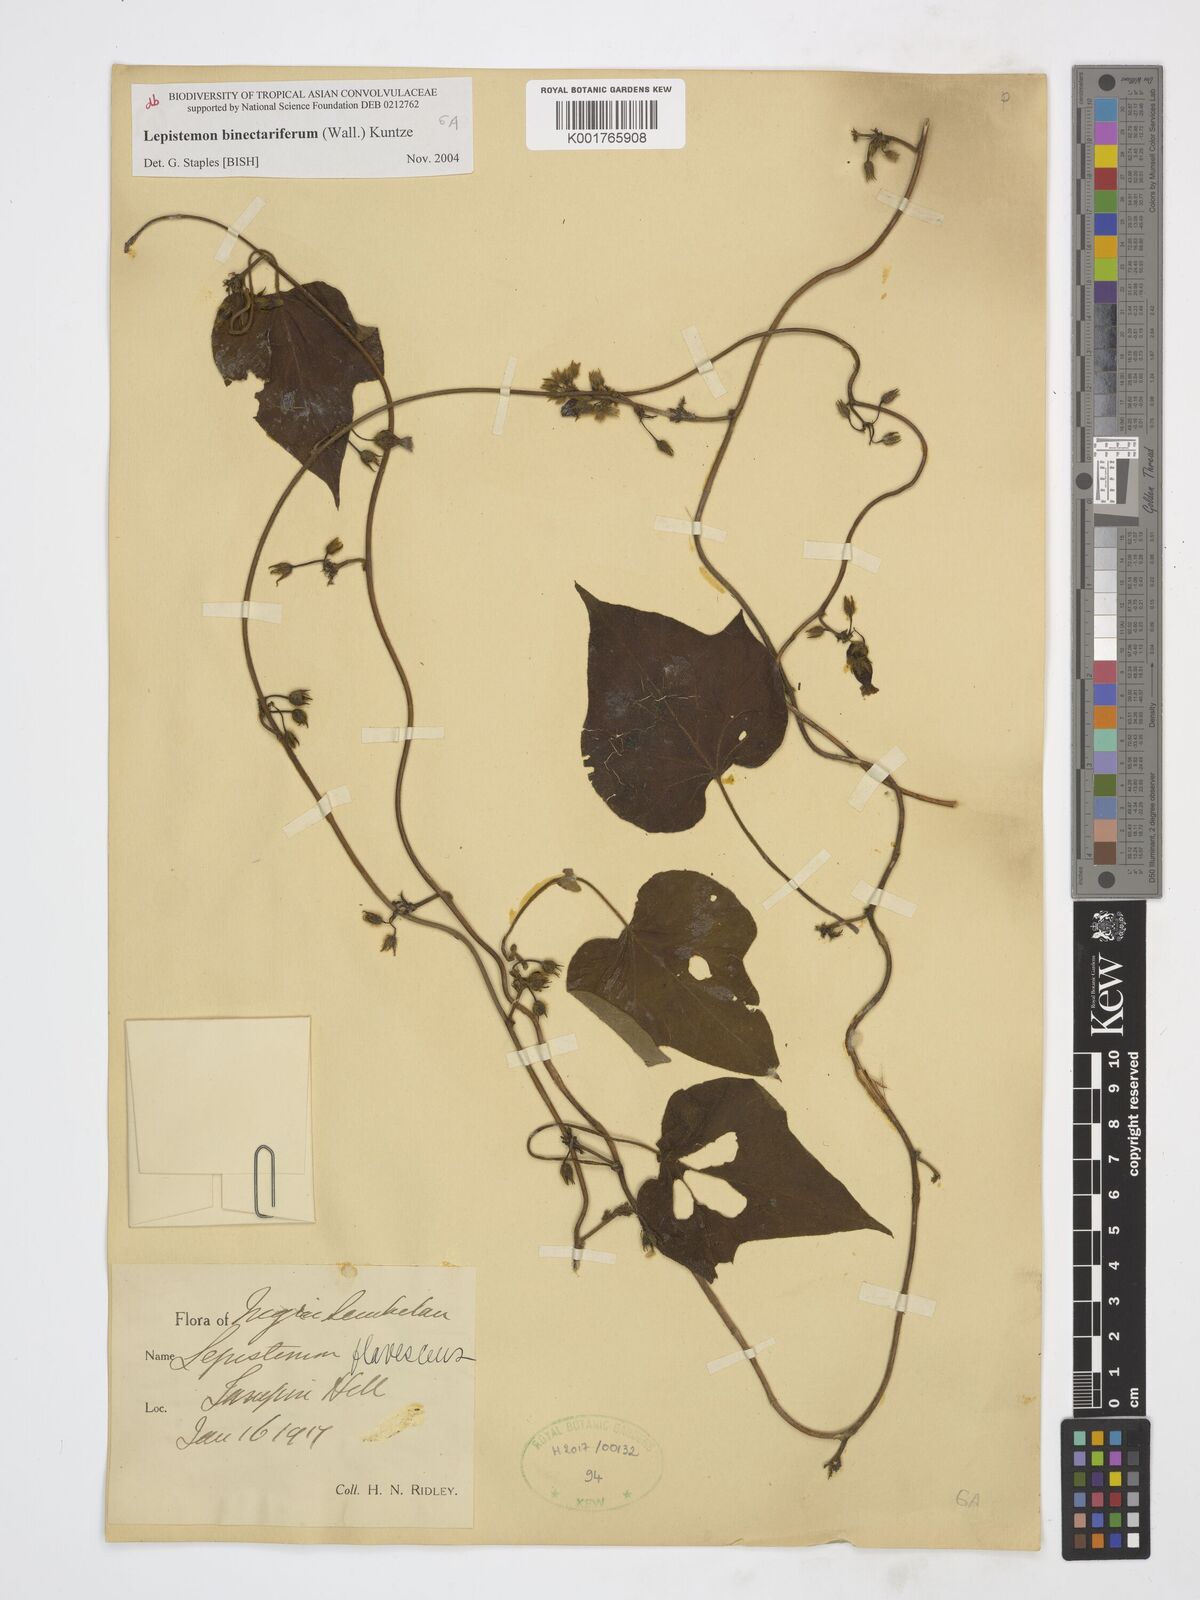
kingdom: Plantae
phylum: Tracheophyta
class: Magnoliopsida
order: Solanales
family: Convolvulaceae
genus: Lepistemon
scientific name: Lepistemon
